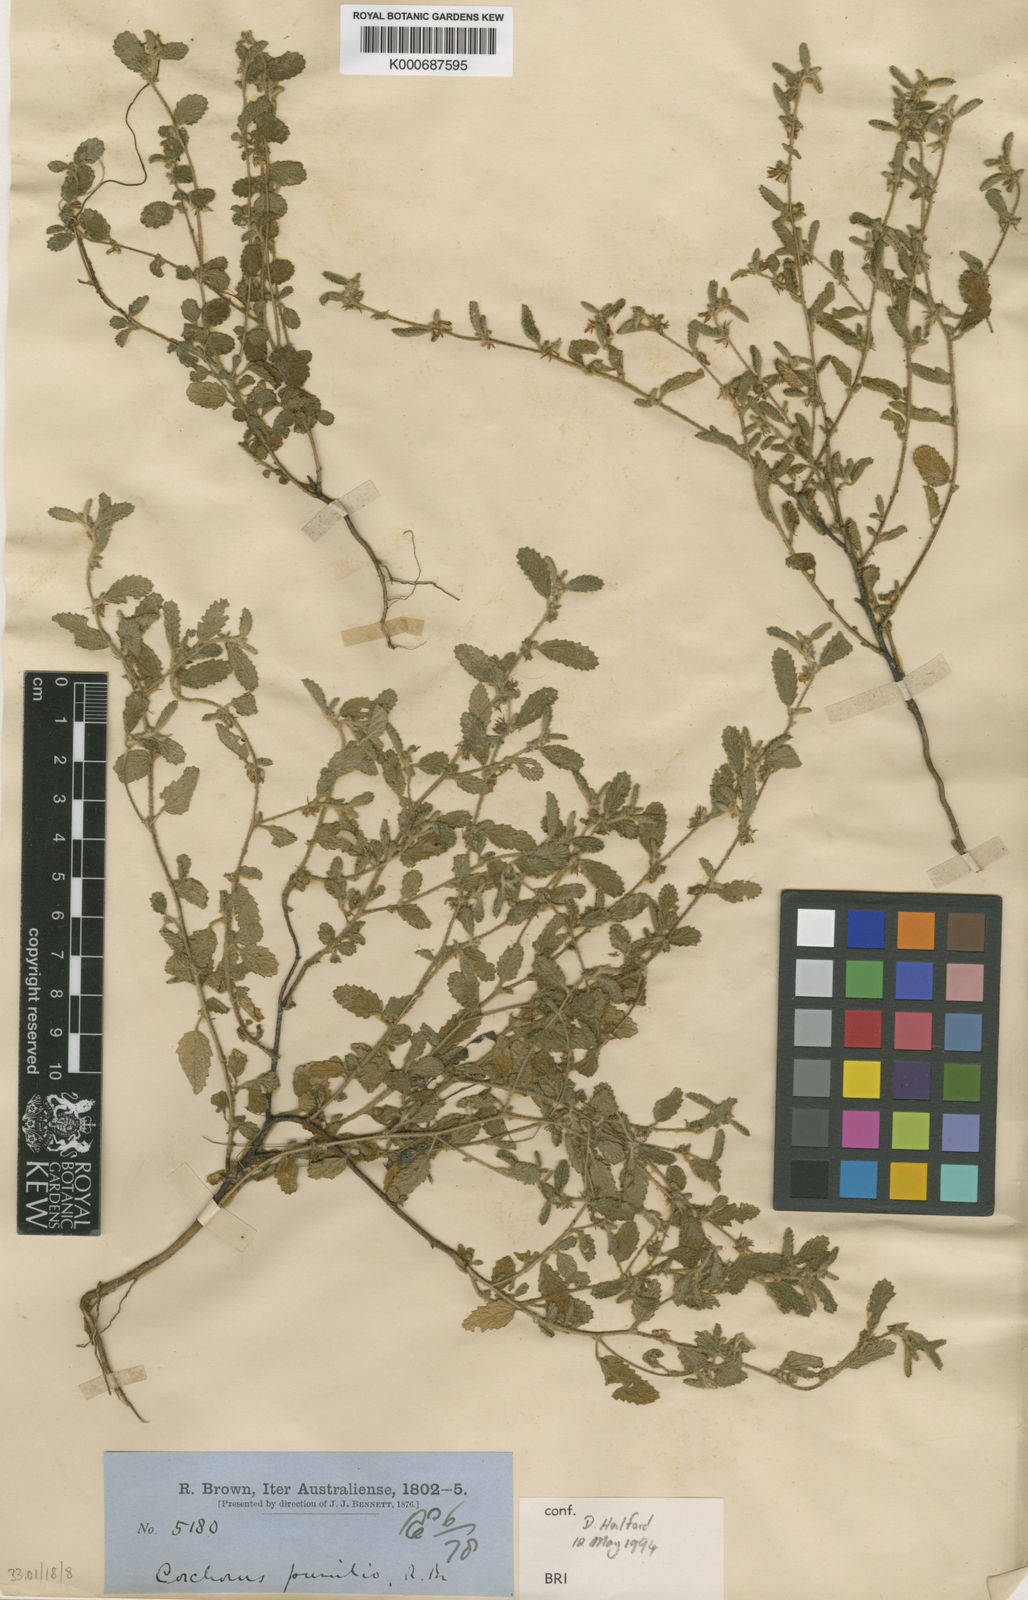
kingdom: Plantae
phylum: Tracheophyta
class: Magnoliopsida
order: Malvales
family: Malvaceae
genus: Corchorus
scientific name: Corchorus pumilio
